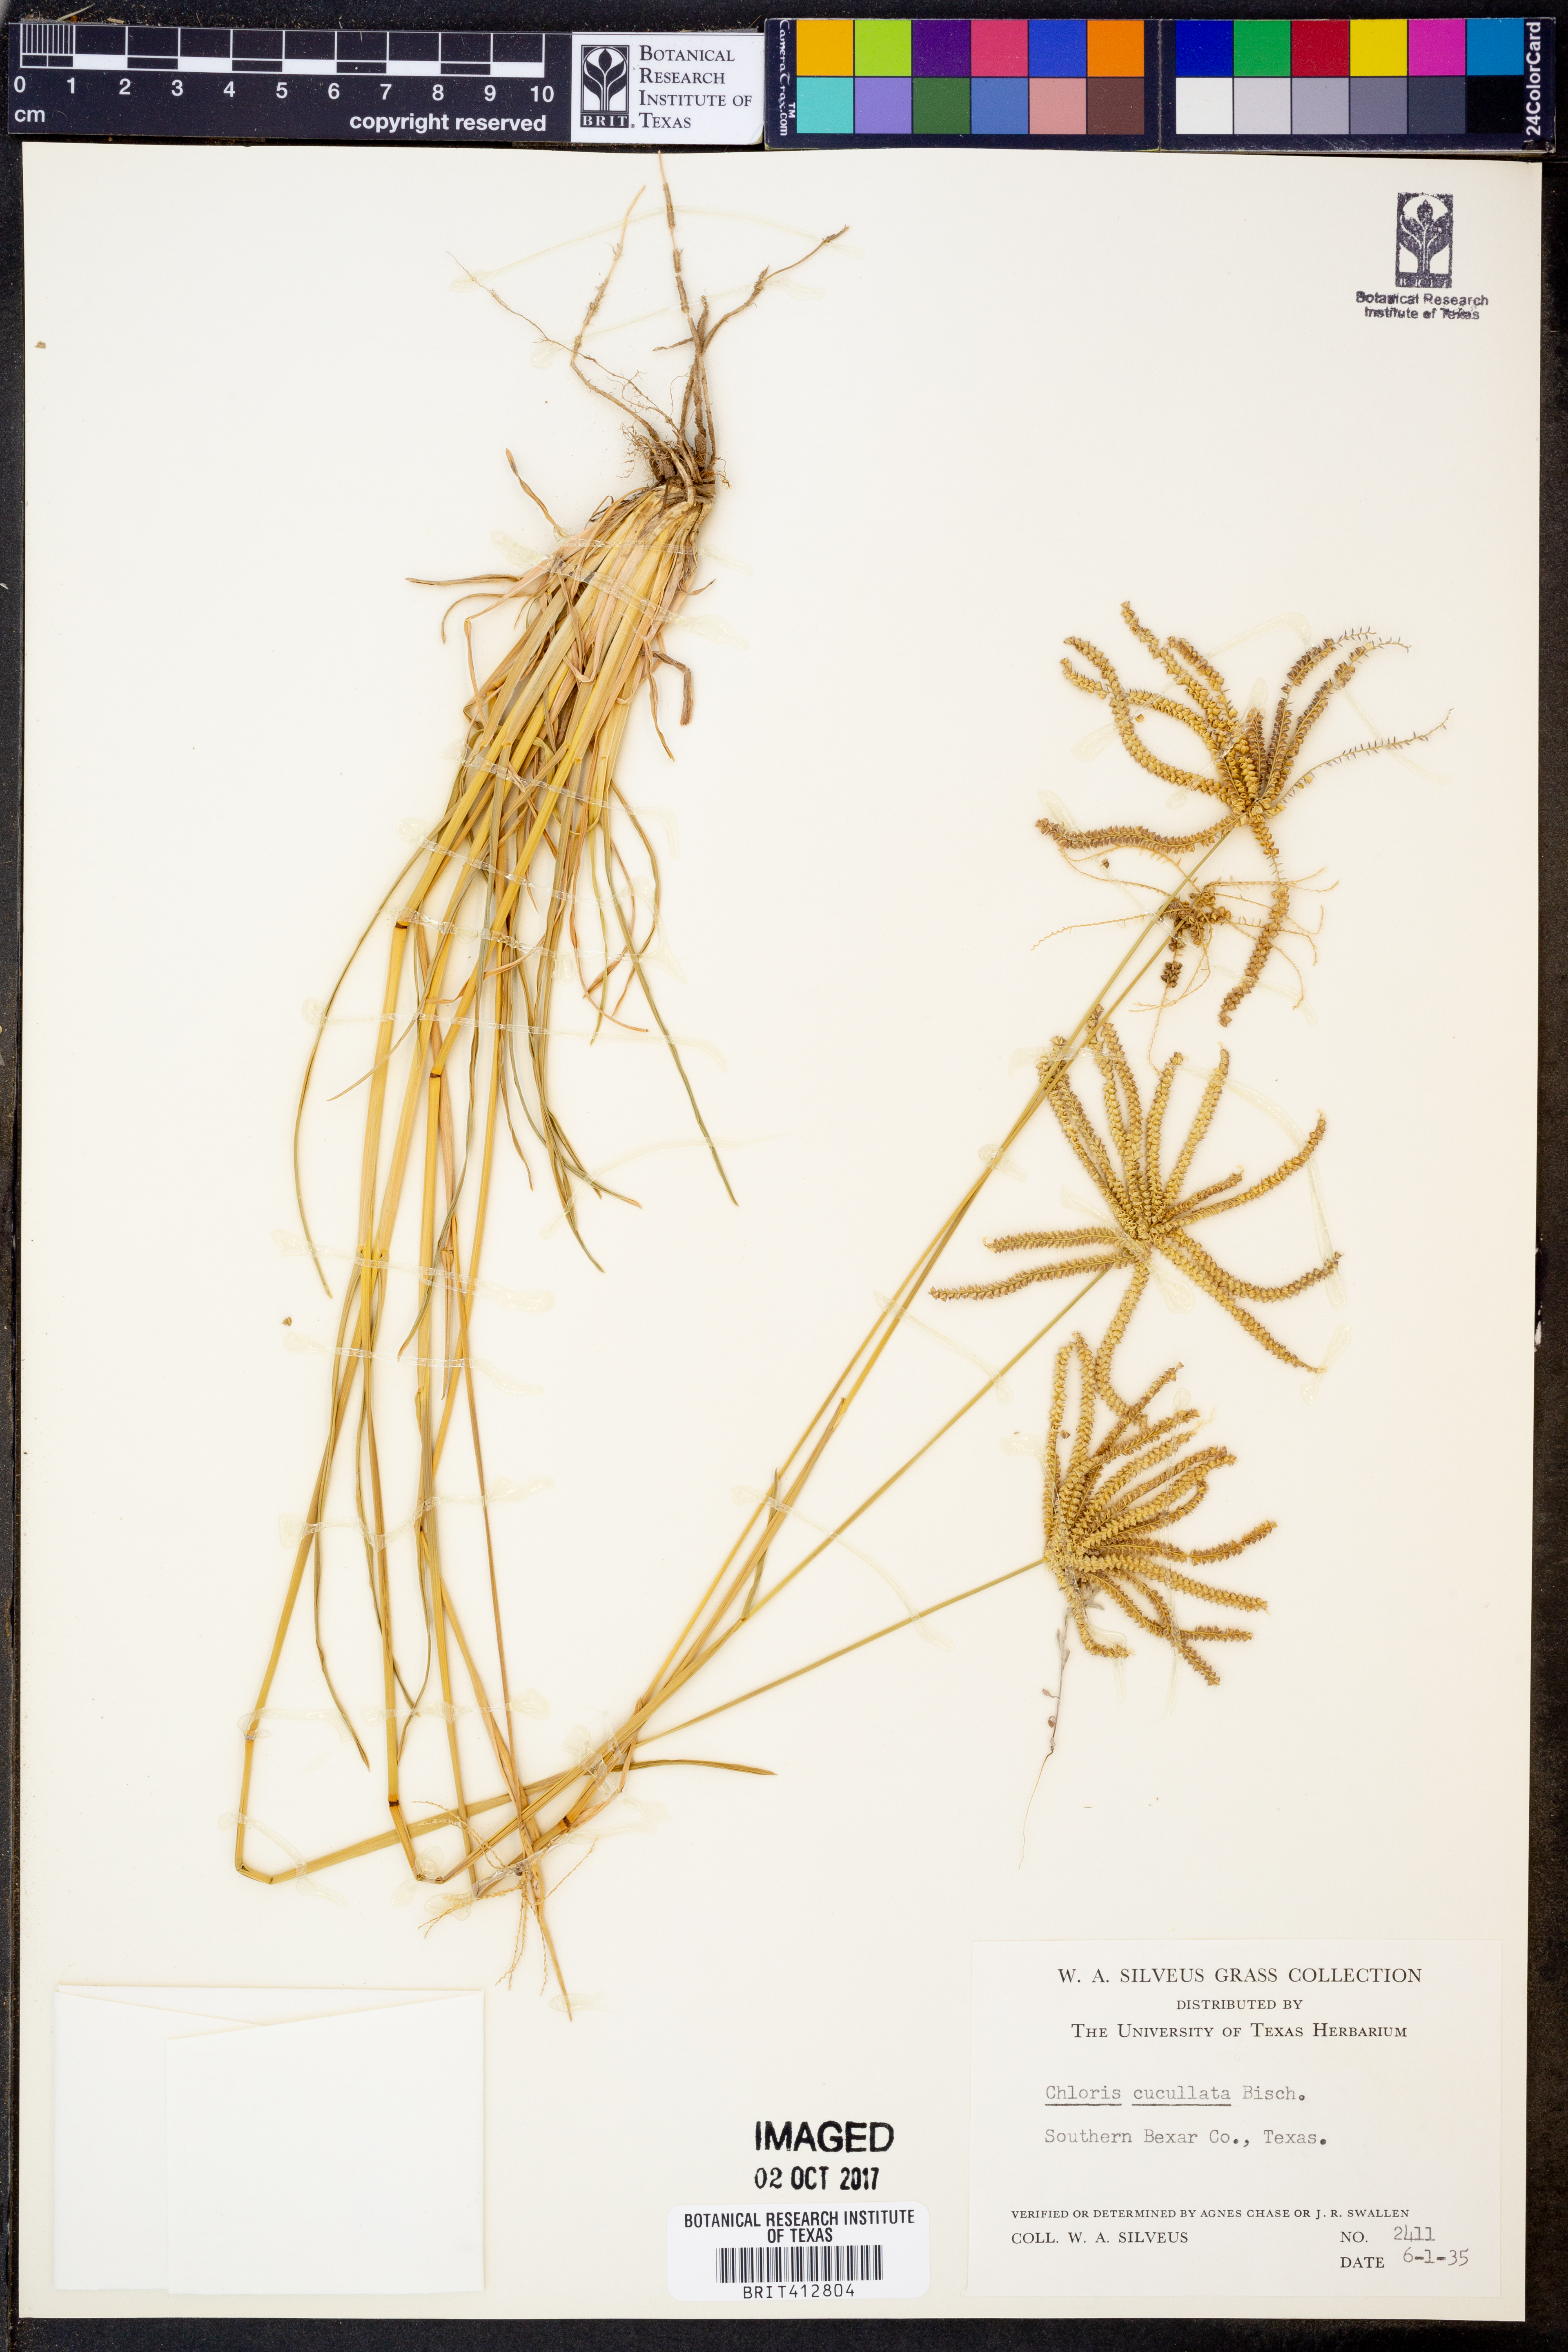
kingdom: Plantae
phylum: Tracheophyta
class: Liliopsida
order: Poales
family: Poaceae
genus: Chloris
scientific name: Chloris cucullata
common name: Hooded windmill grass
